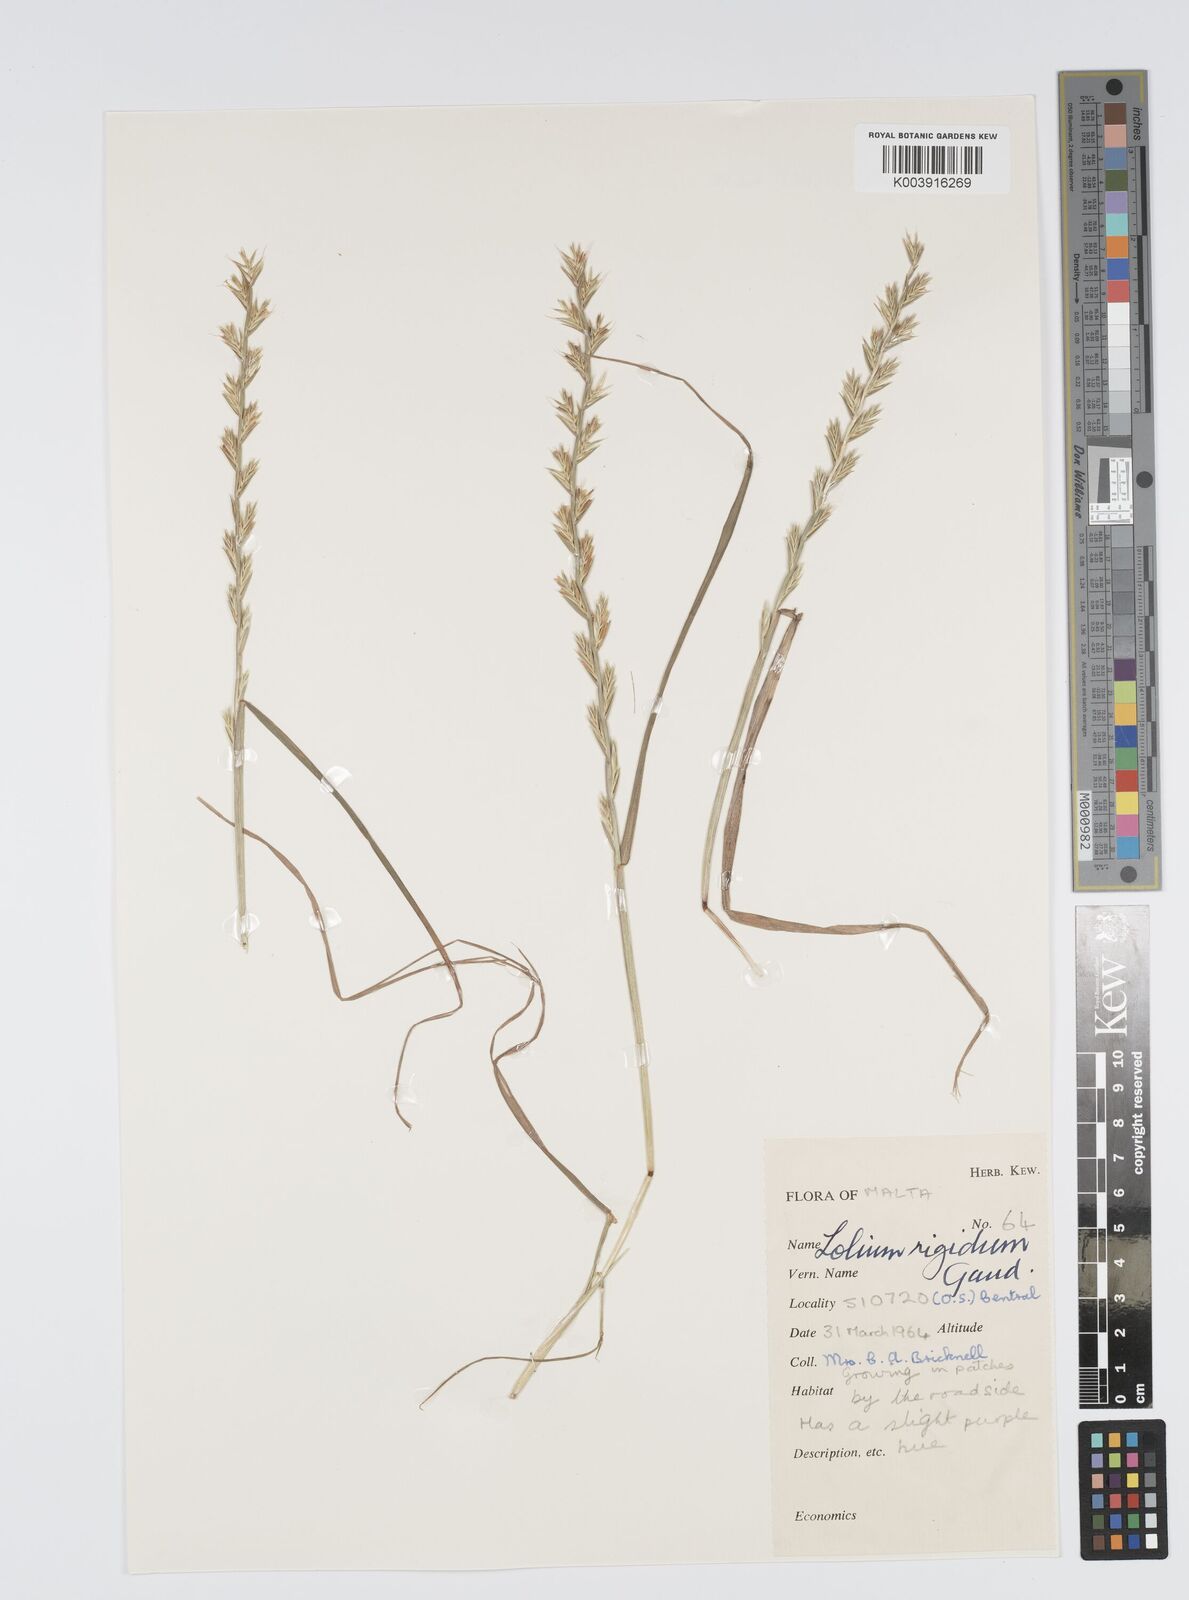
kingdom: Plantae
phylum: Tracheophyta
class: Liliopsida
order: Poales
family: Poaceae
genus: Lolium
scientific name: Lolium rigidum
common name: Wimmera ryegrass
